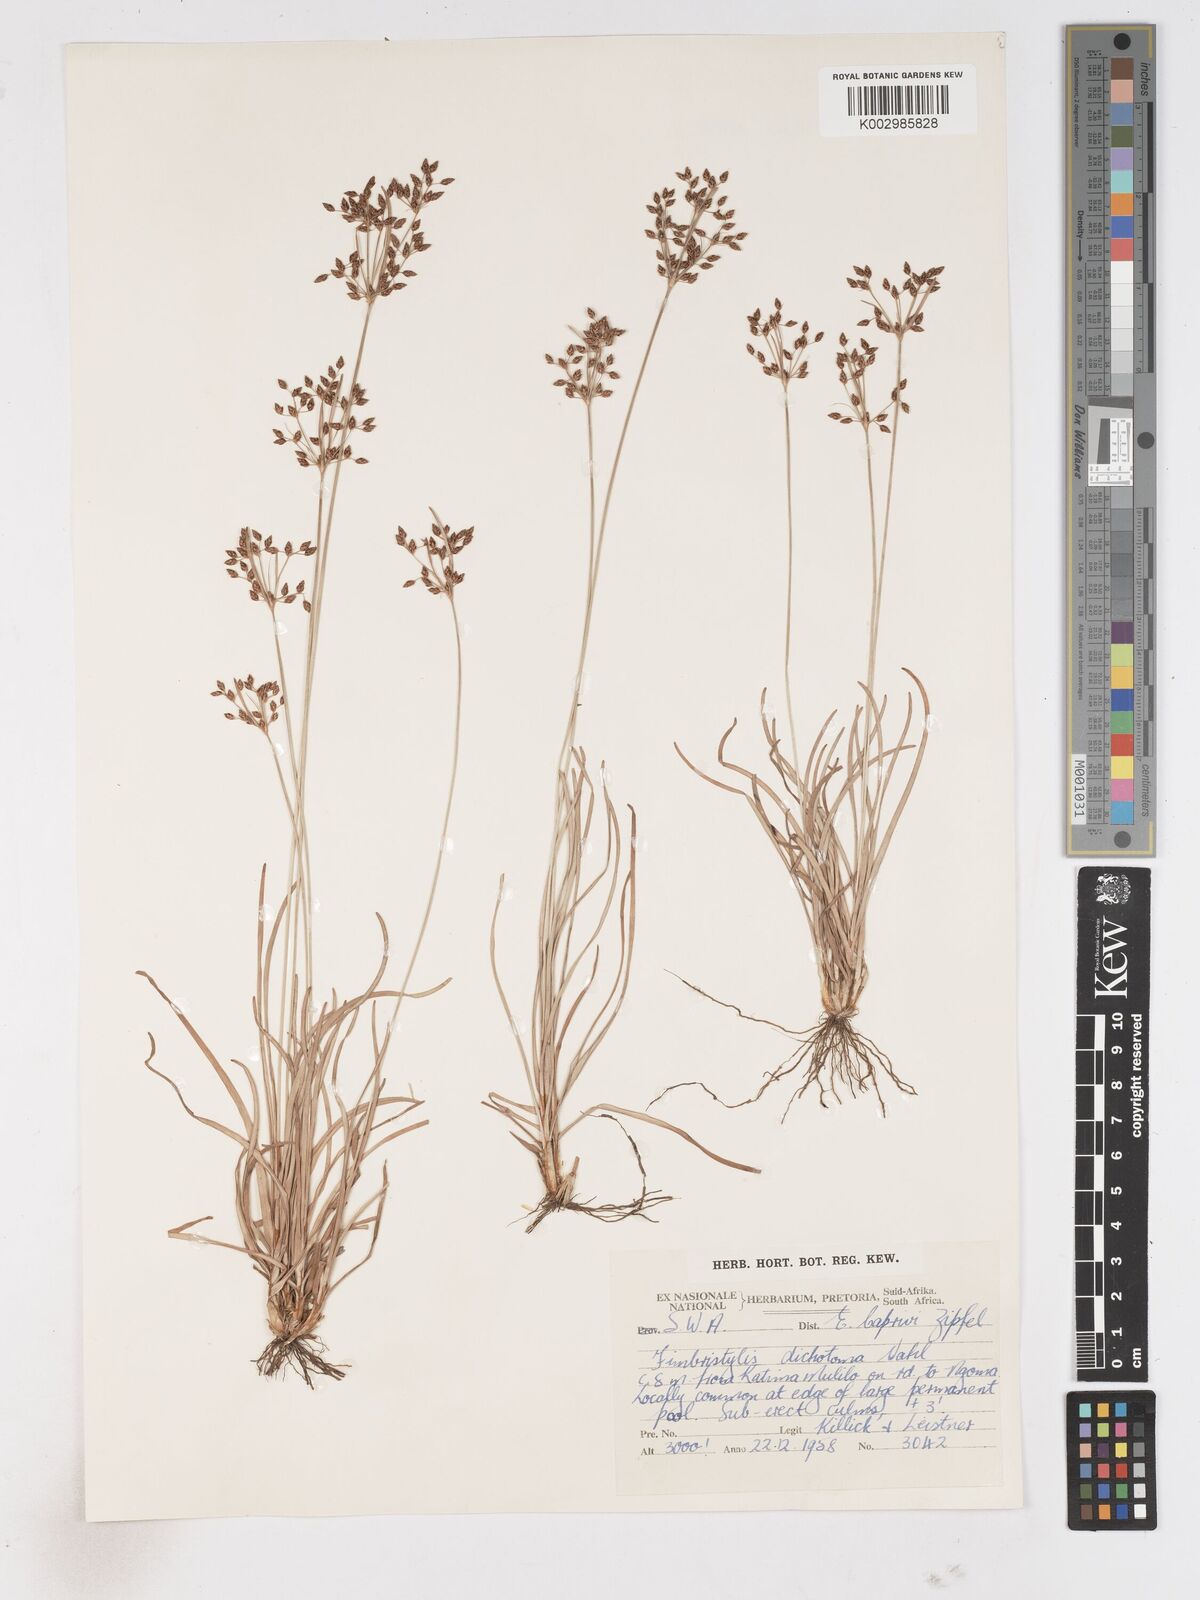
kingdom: Plantae
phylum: Tracheophyta
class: Liliopsida
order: Poales
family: Cyperaceae
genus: Fimbristylis
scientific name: Fimbristylis dichotoma
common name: Forked fimbry
